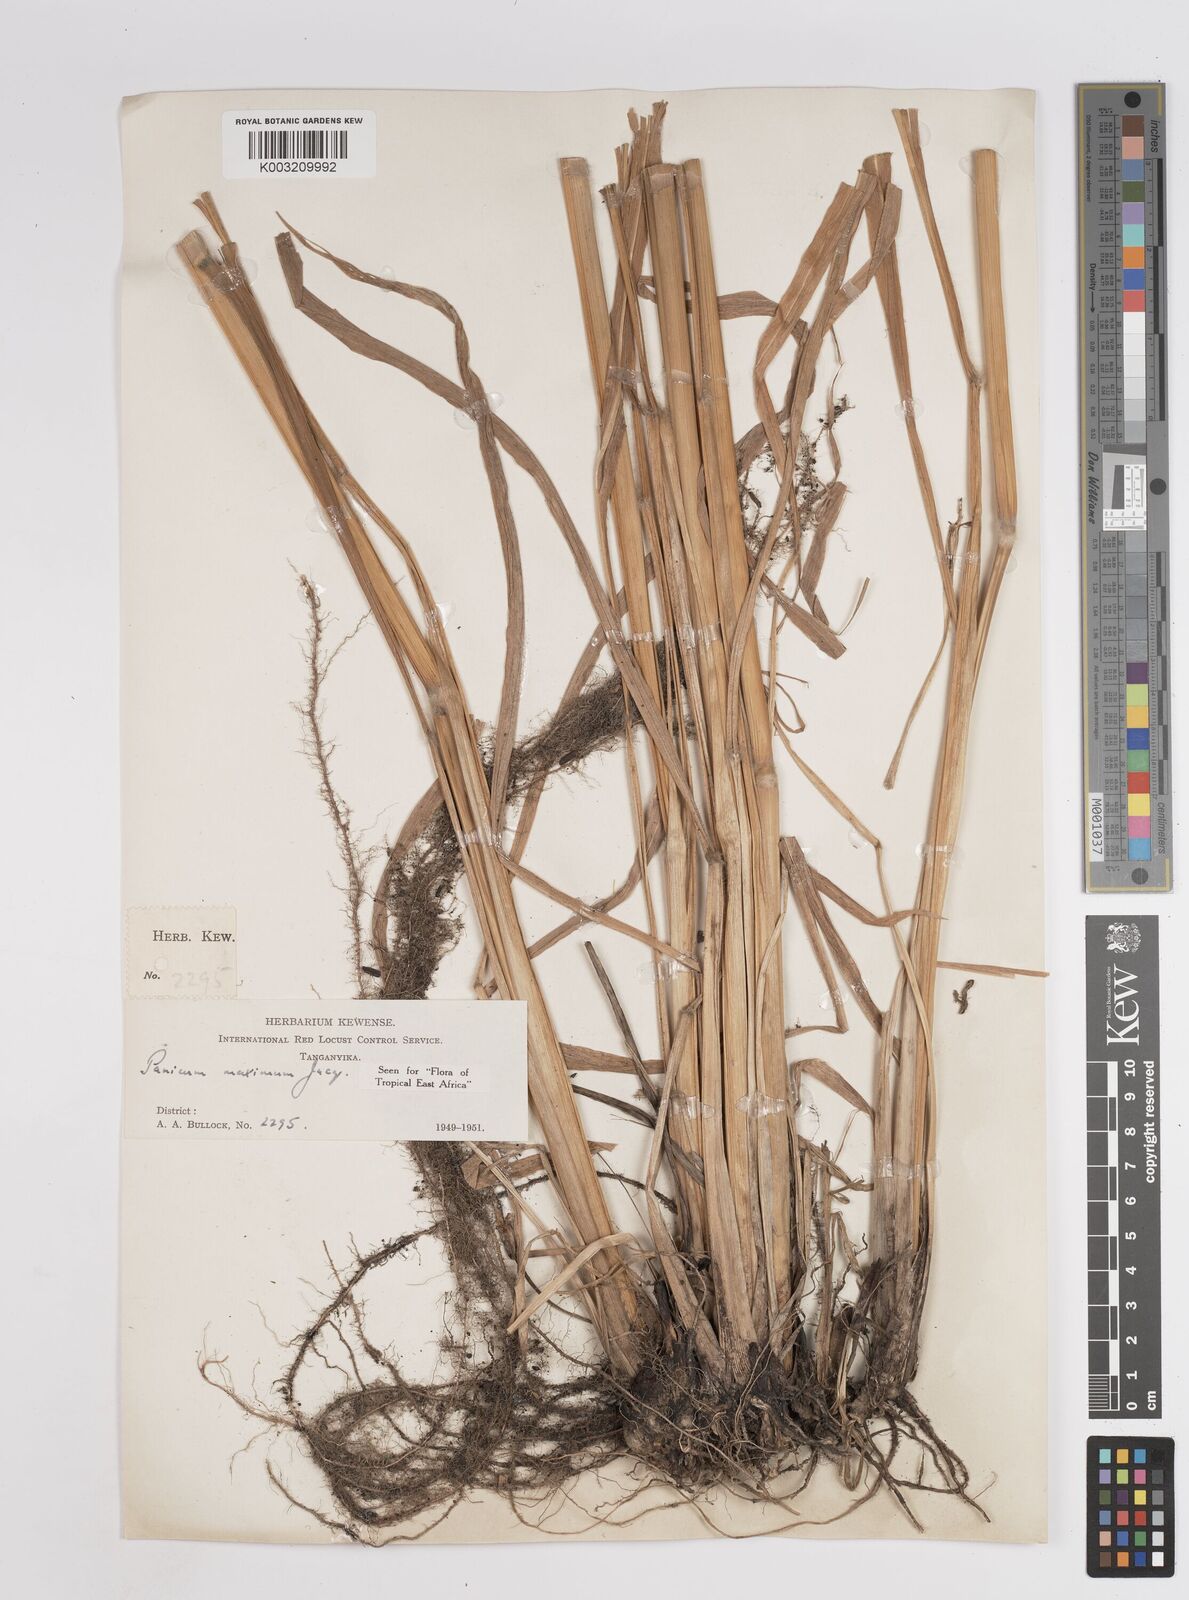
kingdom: Plantae
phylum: Tracheophyta
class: Liliopsida
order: Poales
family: Poaceae
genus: Megathyrsus
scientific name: Megathyrsus maximus
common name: Guineagrass
